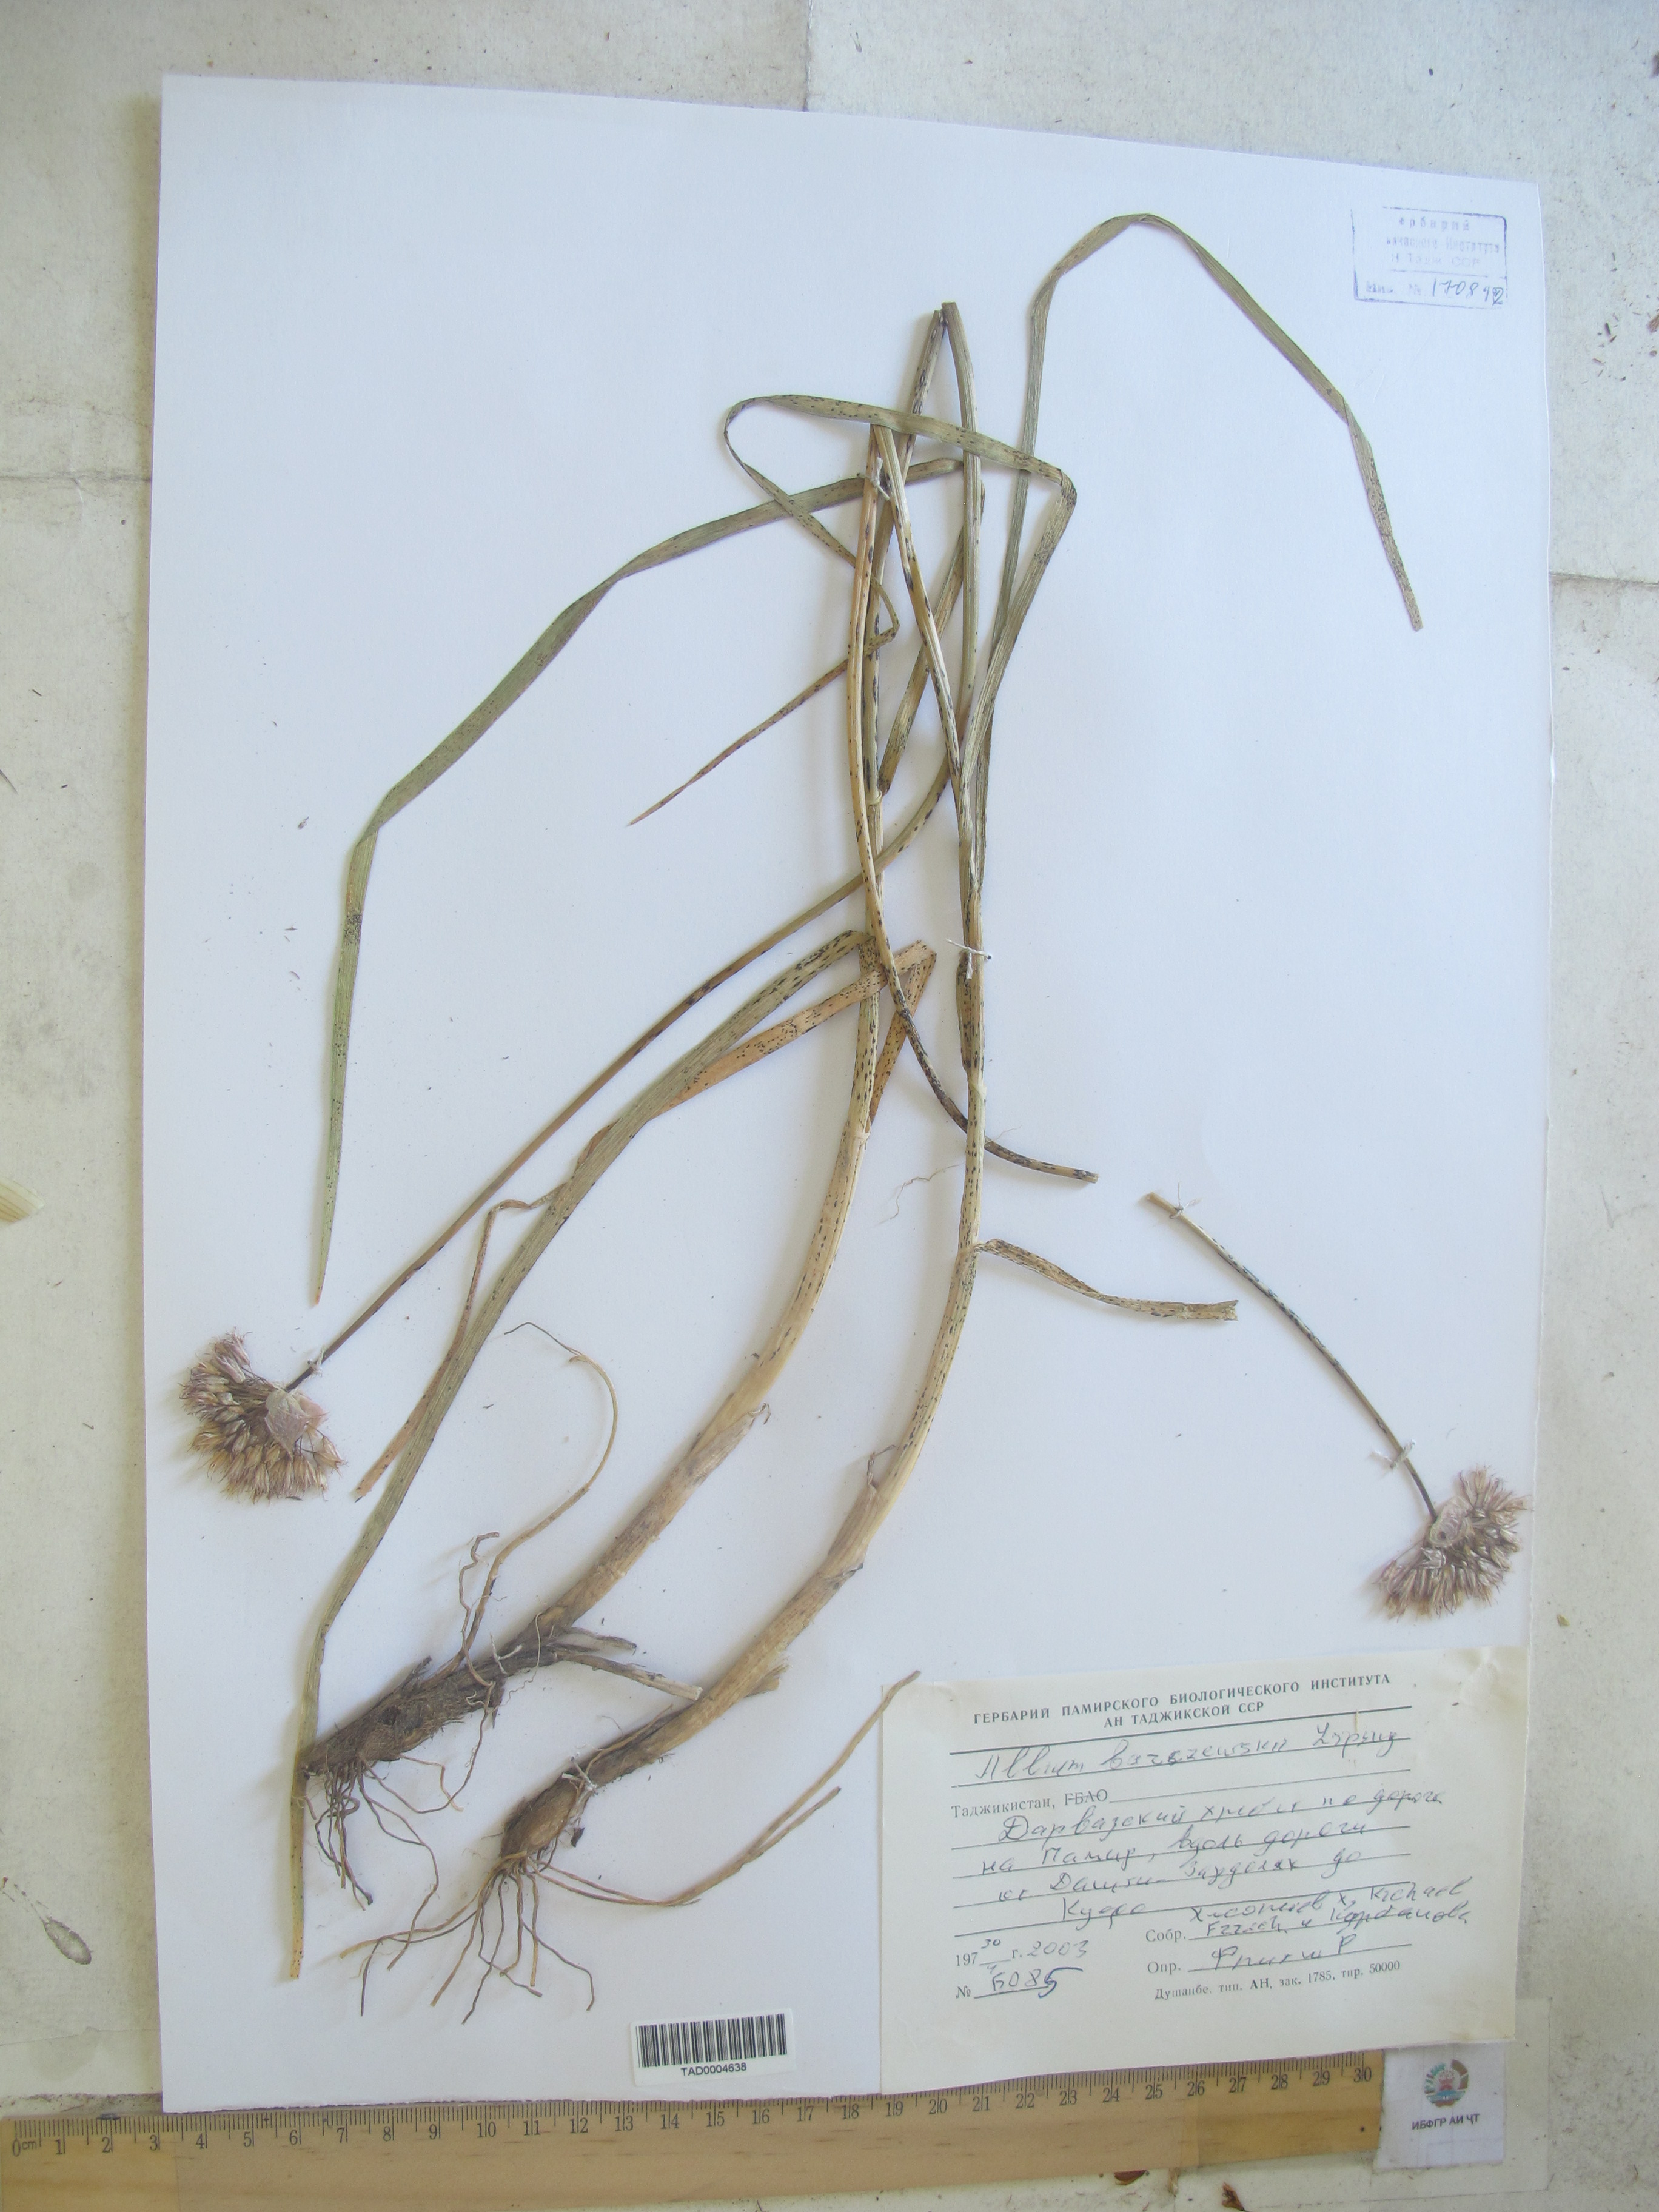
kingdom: Plantae
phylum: Tracheophyta
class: Liliopsida
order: Asparagales
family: Amaryllidaceae
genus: Allium
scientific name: Allium barsczewskii
